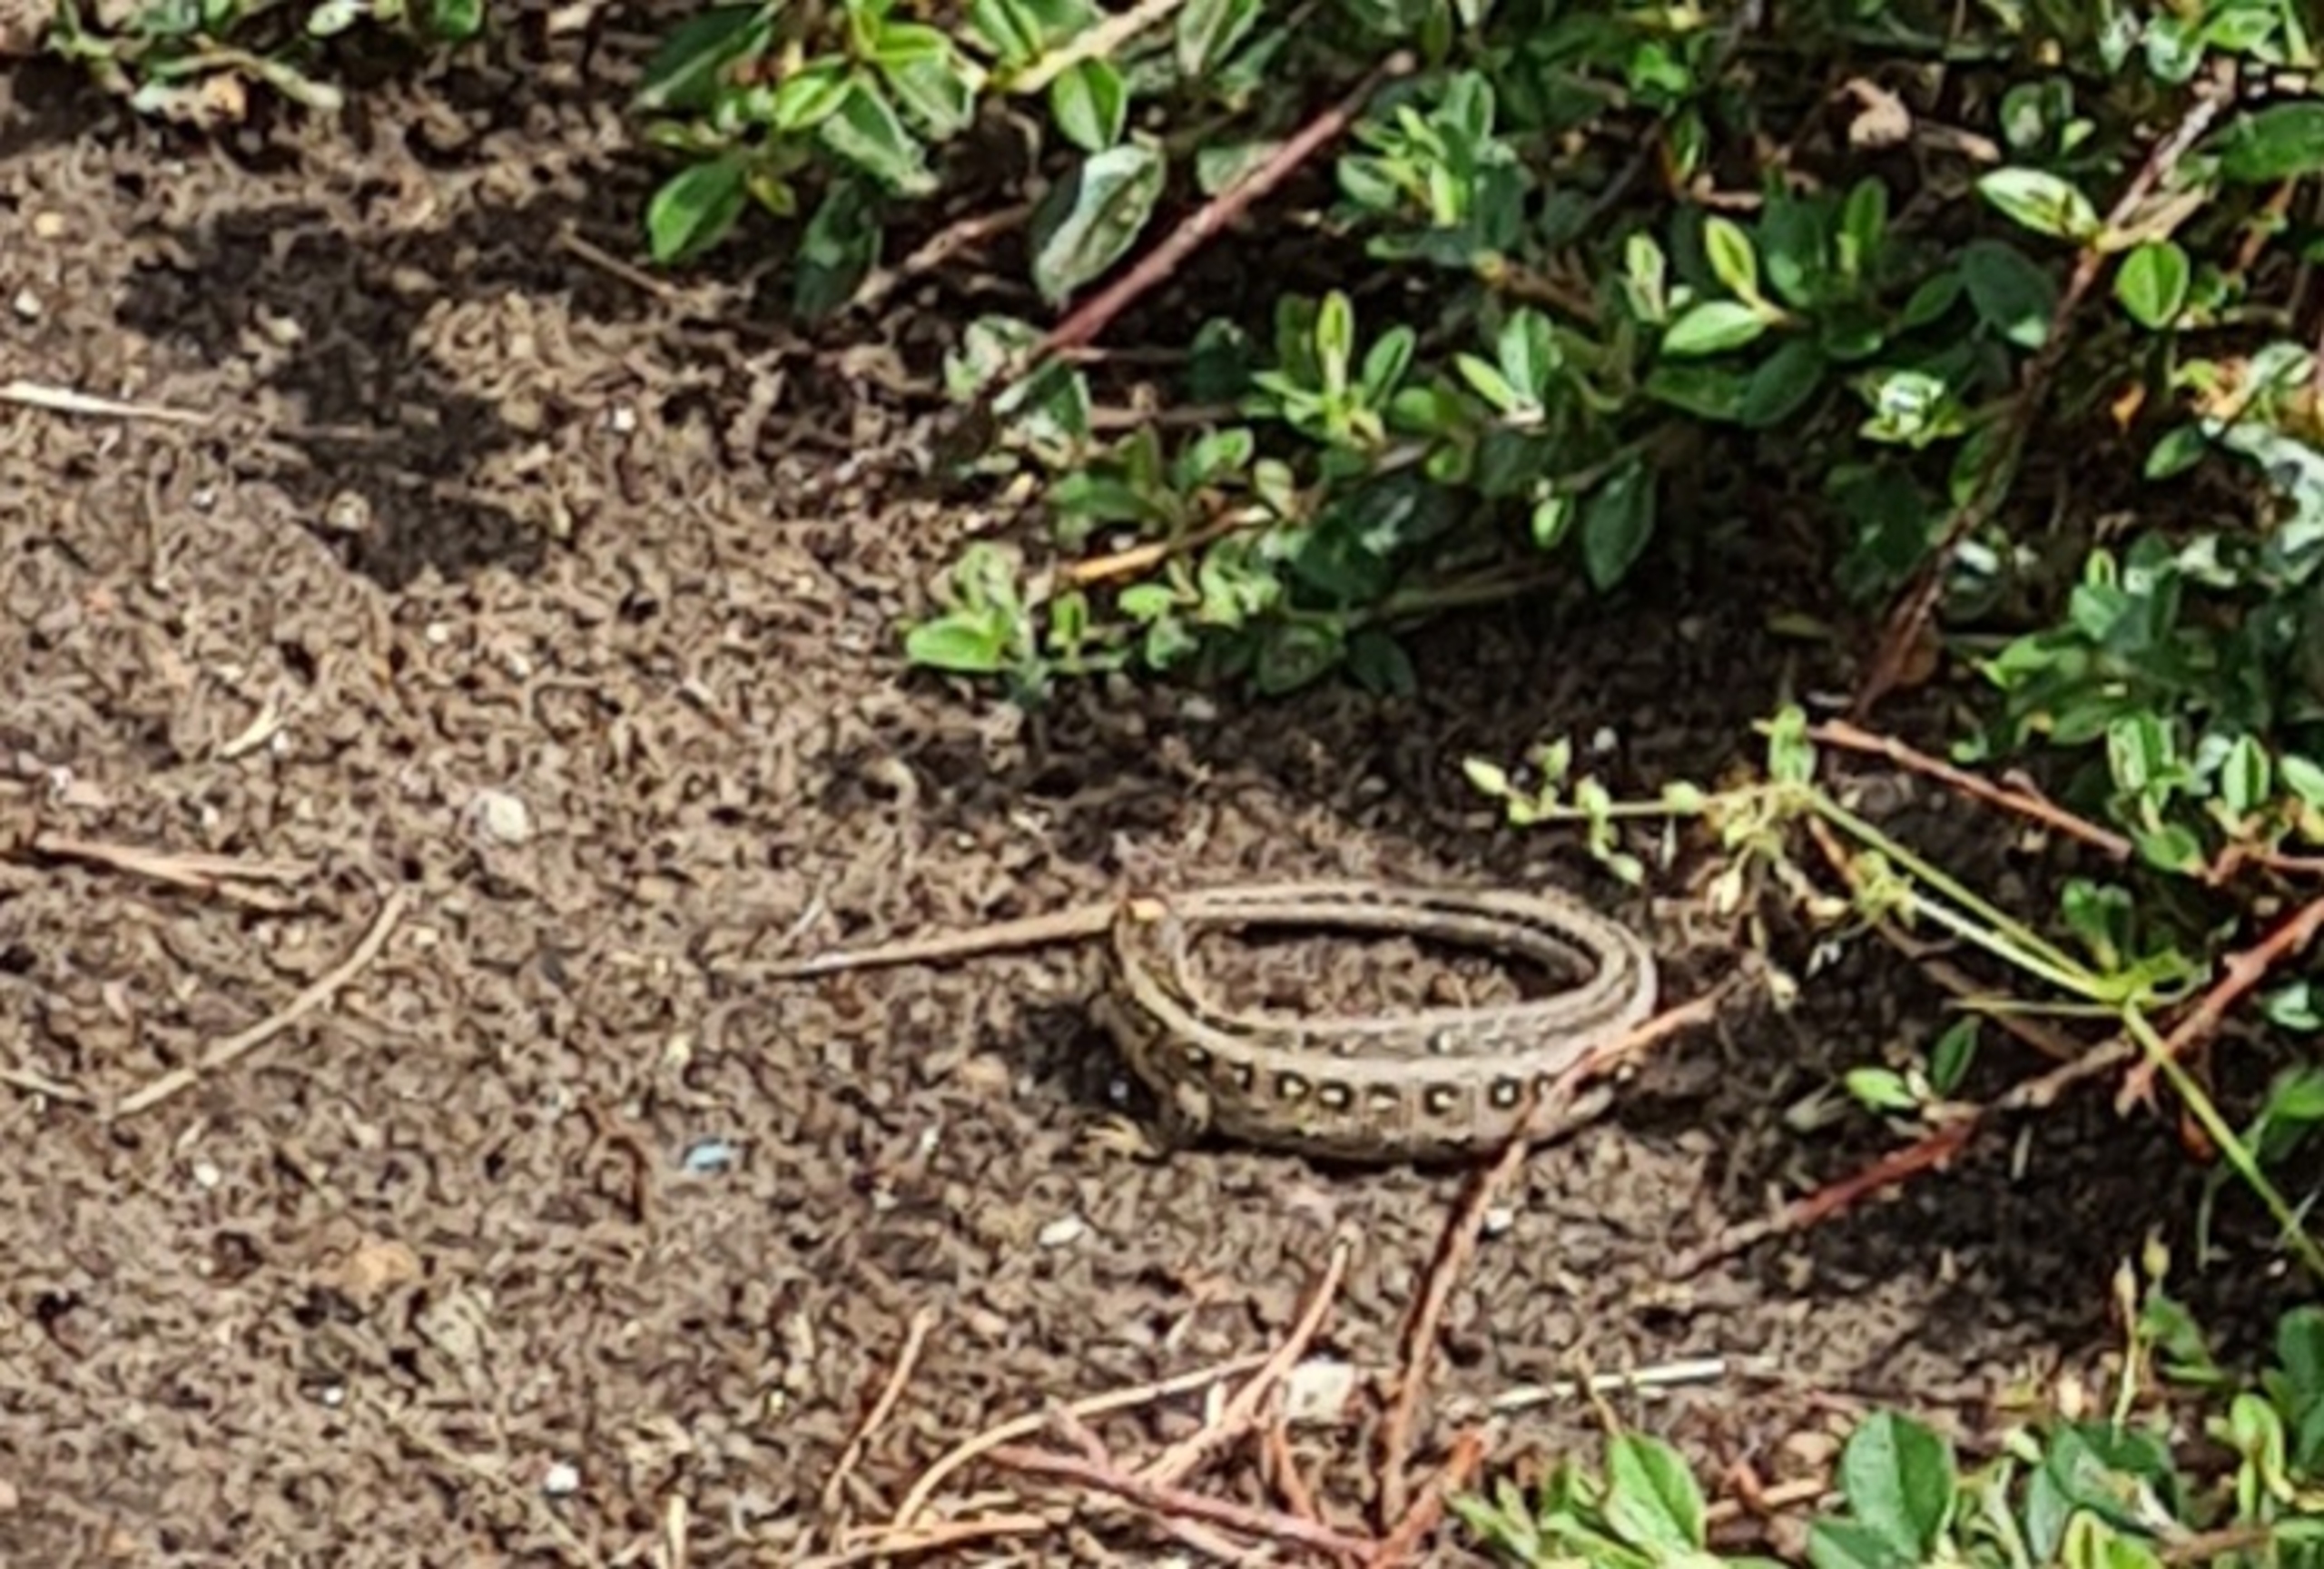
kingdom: Animalia
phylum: Chordata
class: Squamata
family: Lacertidae
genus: Lacerta
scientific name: Lacerta agilis
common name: Markfirben
